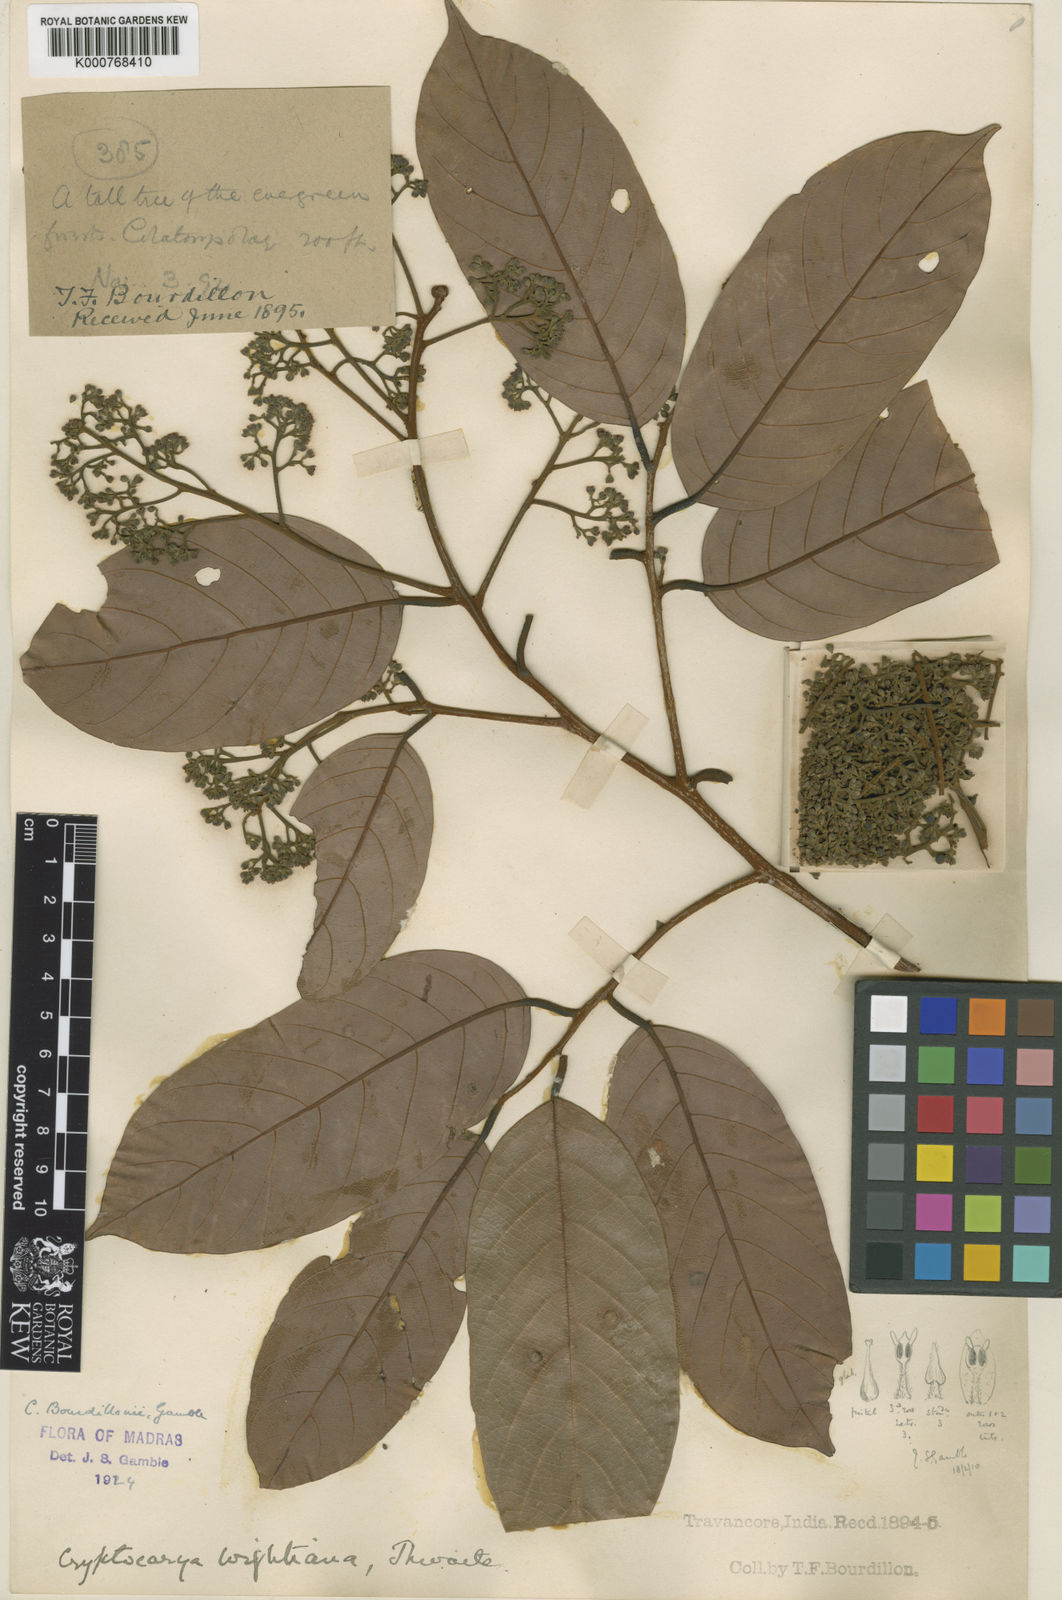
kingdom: Plantae
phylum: Tracheophyta
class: Magnoliopsida
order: Laurales
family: Lauraceae
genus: Cryptocarya
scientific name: Cryptocarya wightiana
